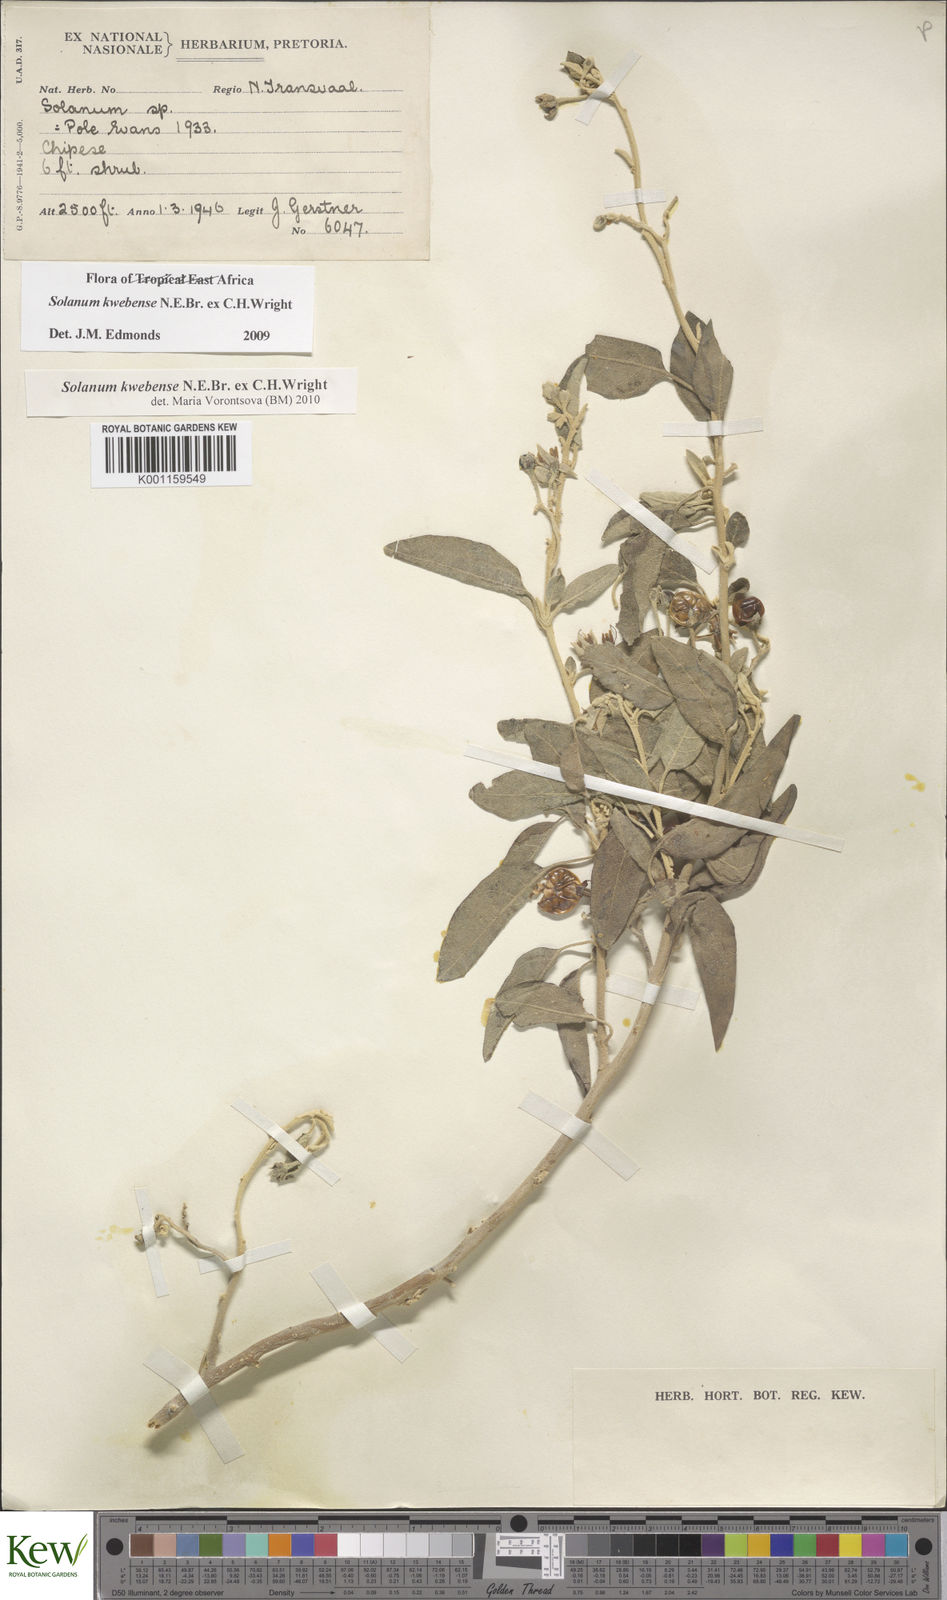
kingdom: Plantae
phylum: Tracheophyta
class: Magnoliopsida
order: Solanales
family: Solanaceae
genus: Solanum
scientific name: Solanum tettense
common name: Mozambique bitter apple
